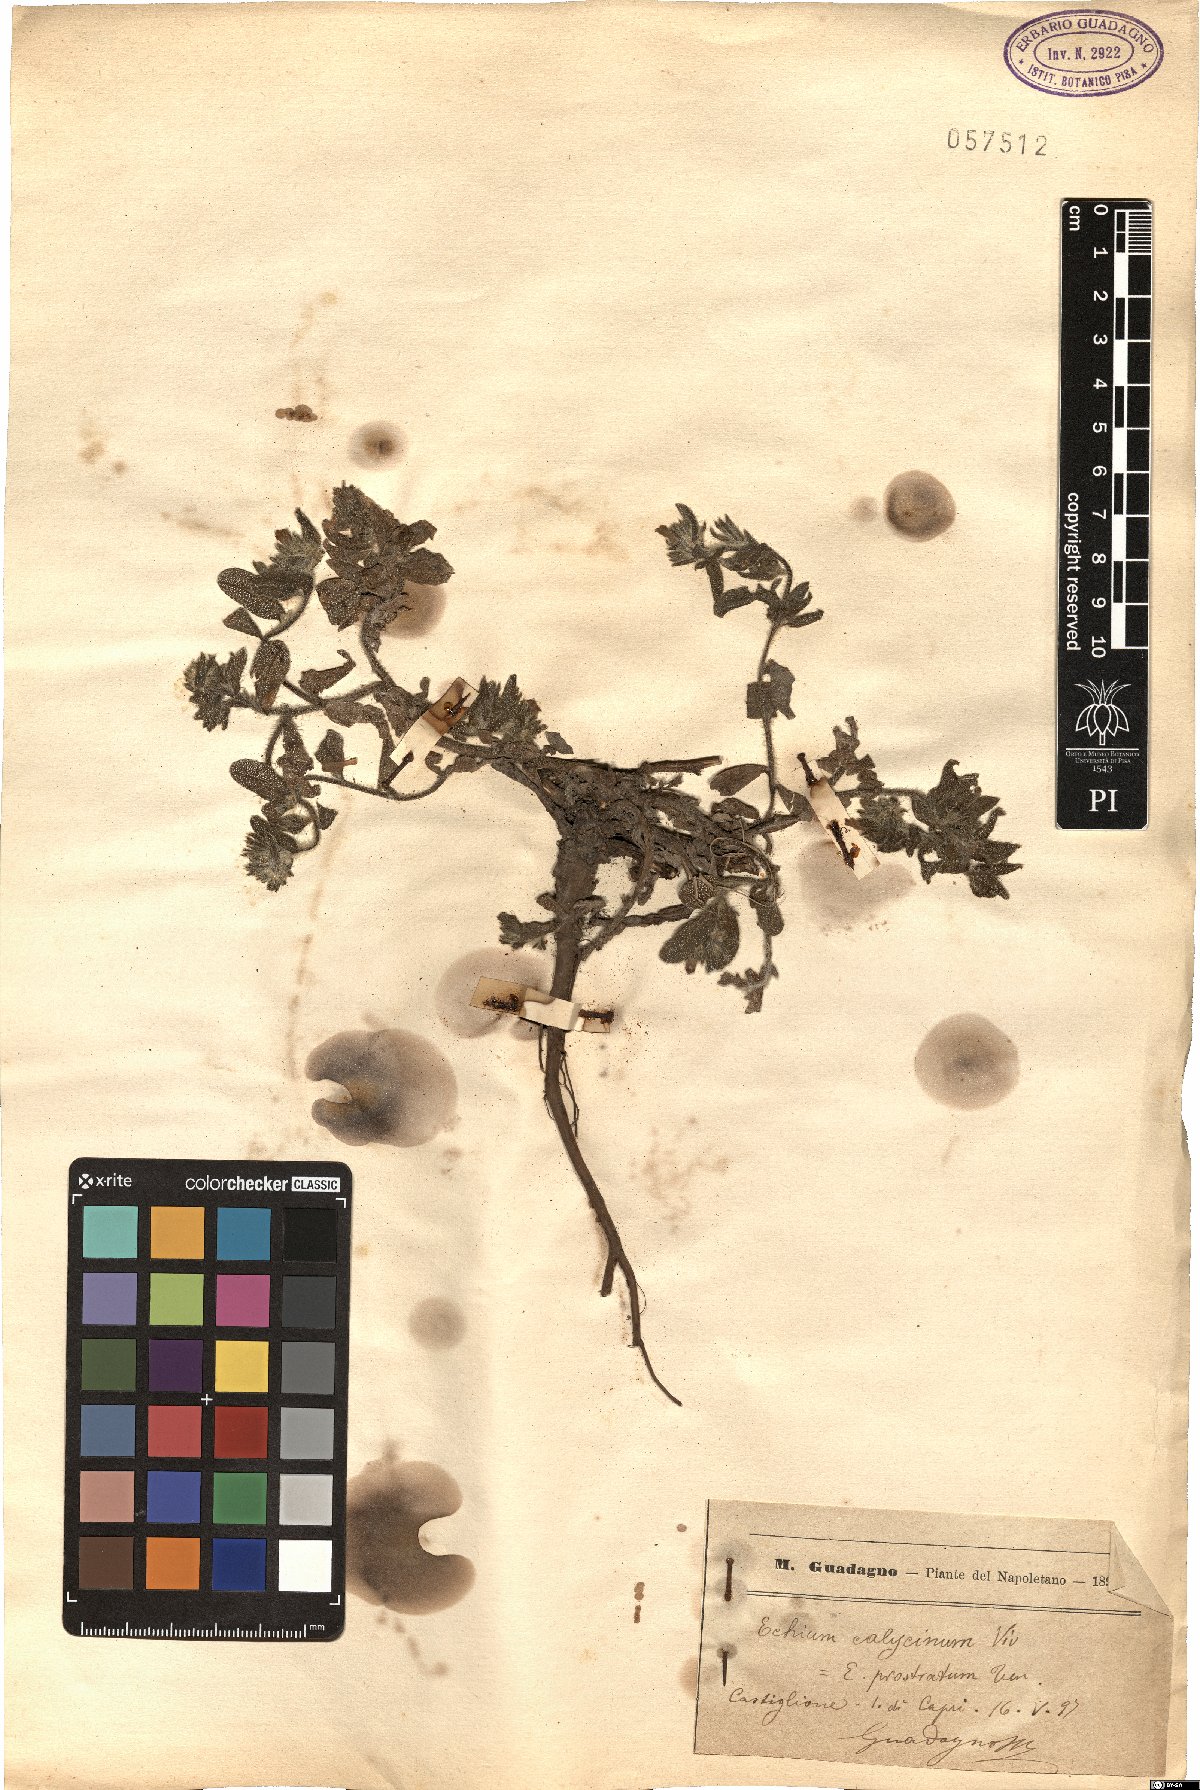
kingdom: Plantae
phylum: Tracheophyta
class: Magnoliopsida
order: Boraginales
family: Boraginaceae
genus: Echium
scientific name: Echium parviflorum
